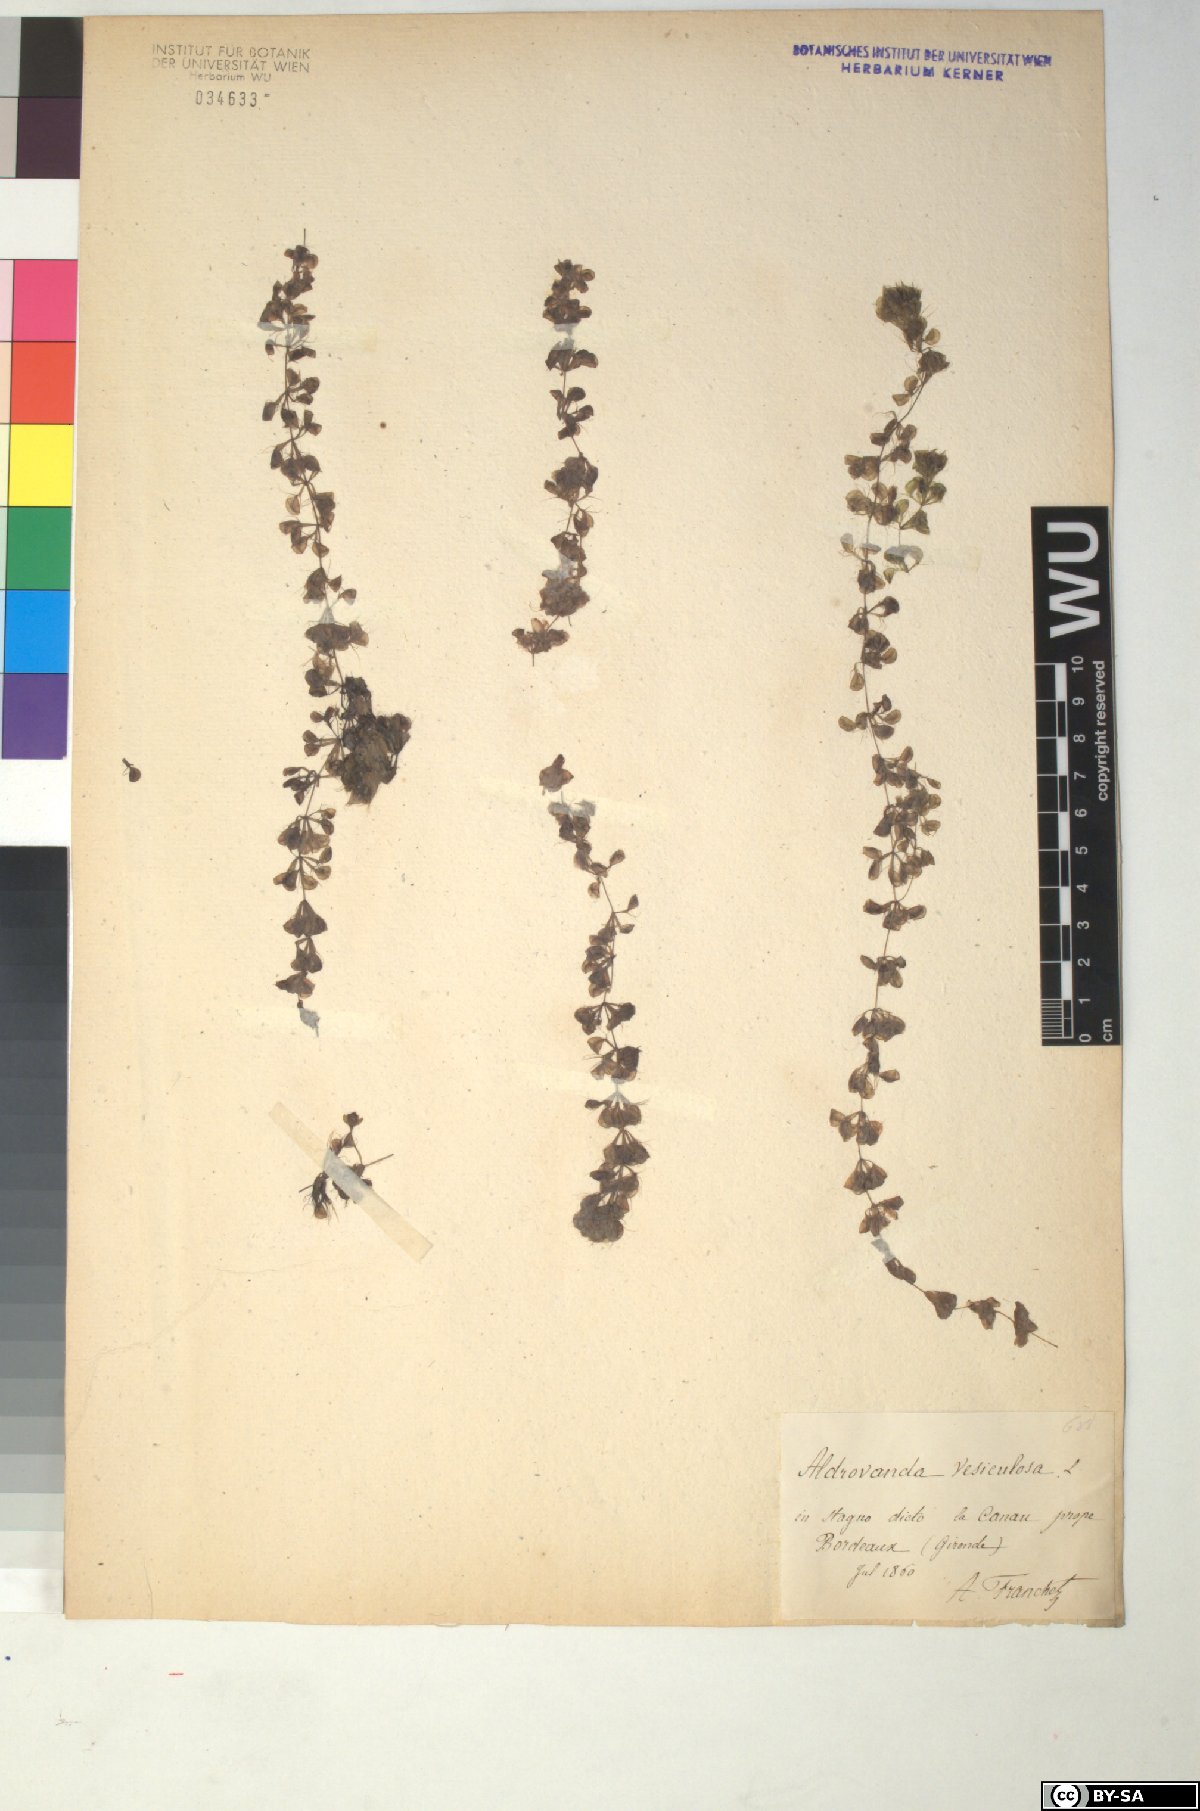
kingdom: Plantae
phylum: Tracheophyta
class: Magnoliopsida
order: Caryophyllales
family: Droseraceae
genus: Aldrovanda
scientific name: Aldrovanda vesiculosa
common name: Waterwheel plant
